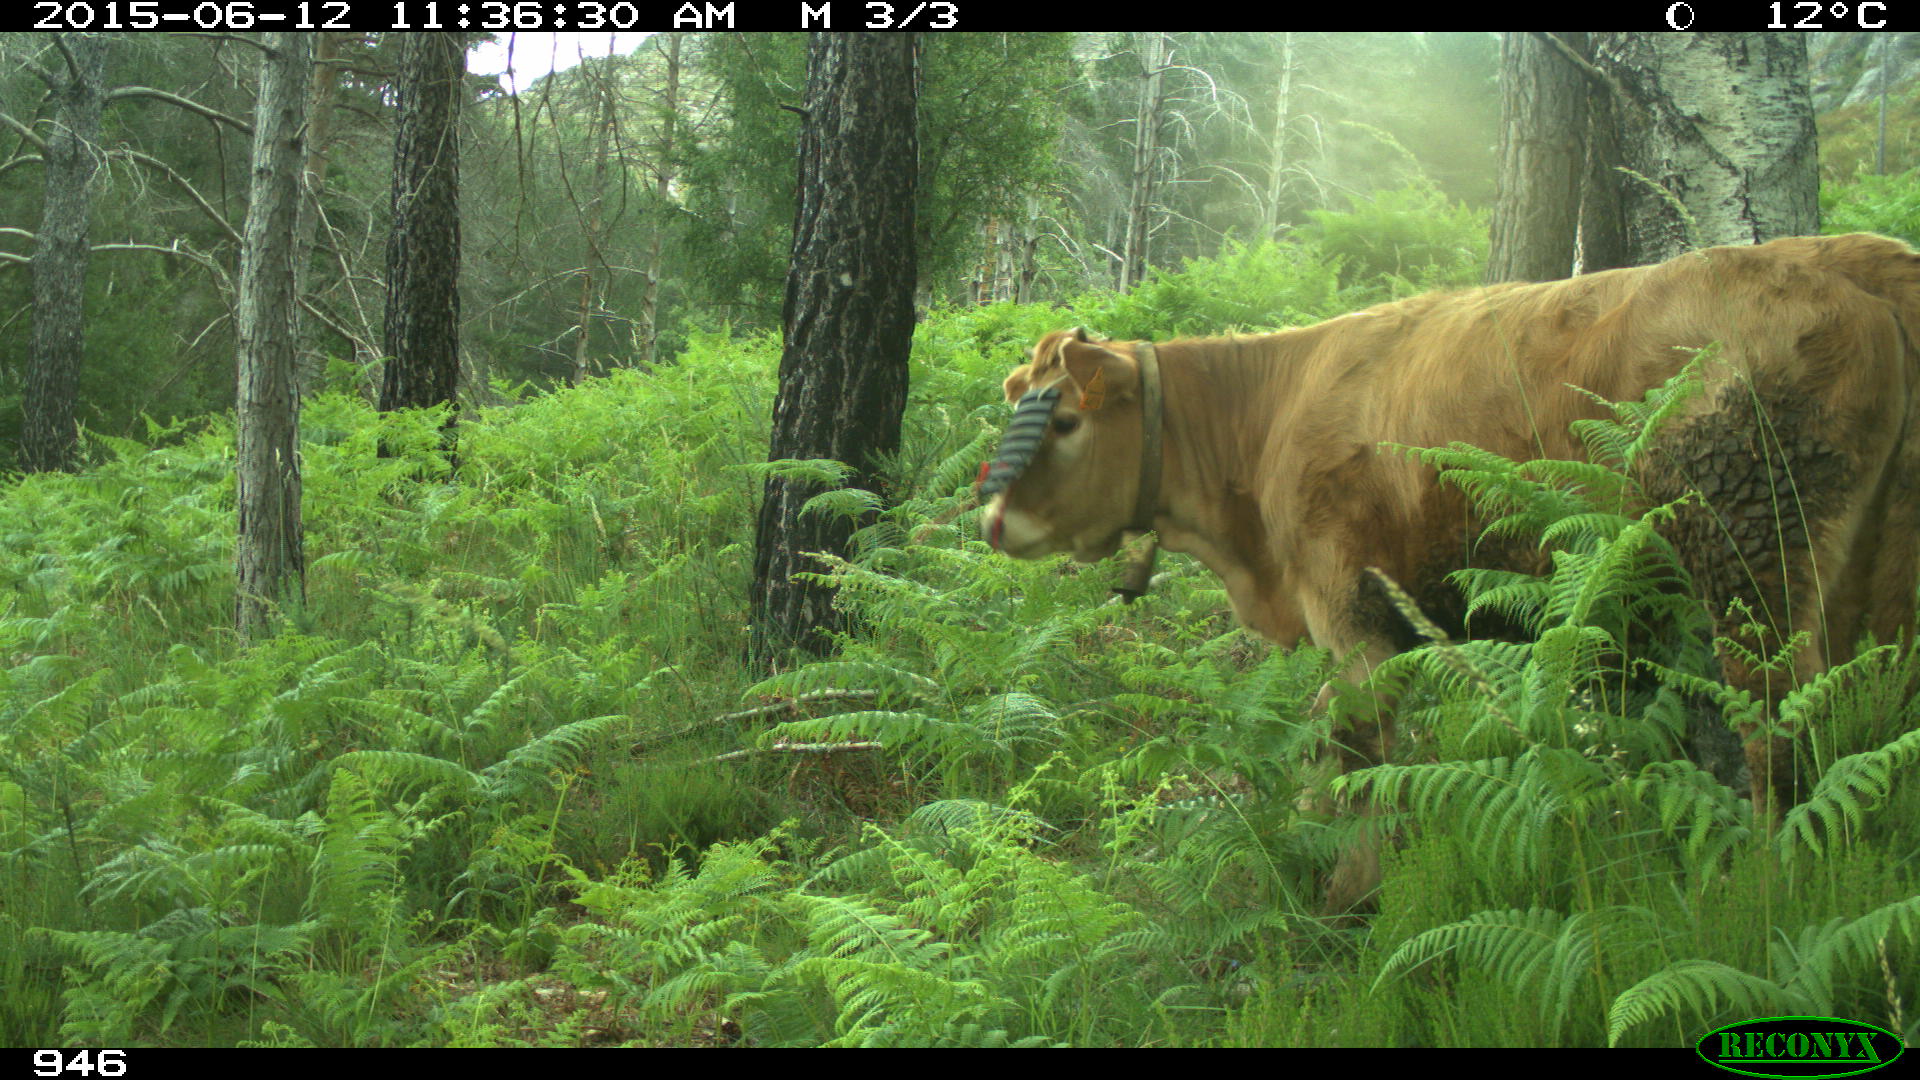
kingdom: Animalia
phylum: Chordata
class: Mammalia
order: Artiodactyla
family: Bovidae
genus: Bos
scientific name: Bos taurus
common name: Domesticated cattle
